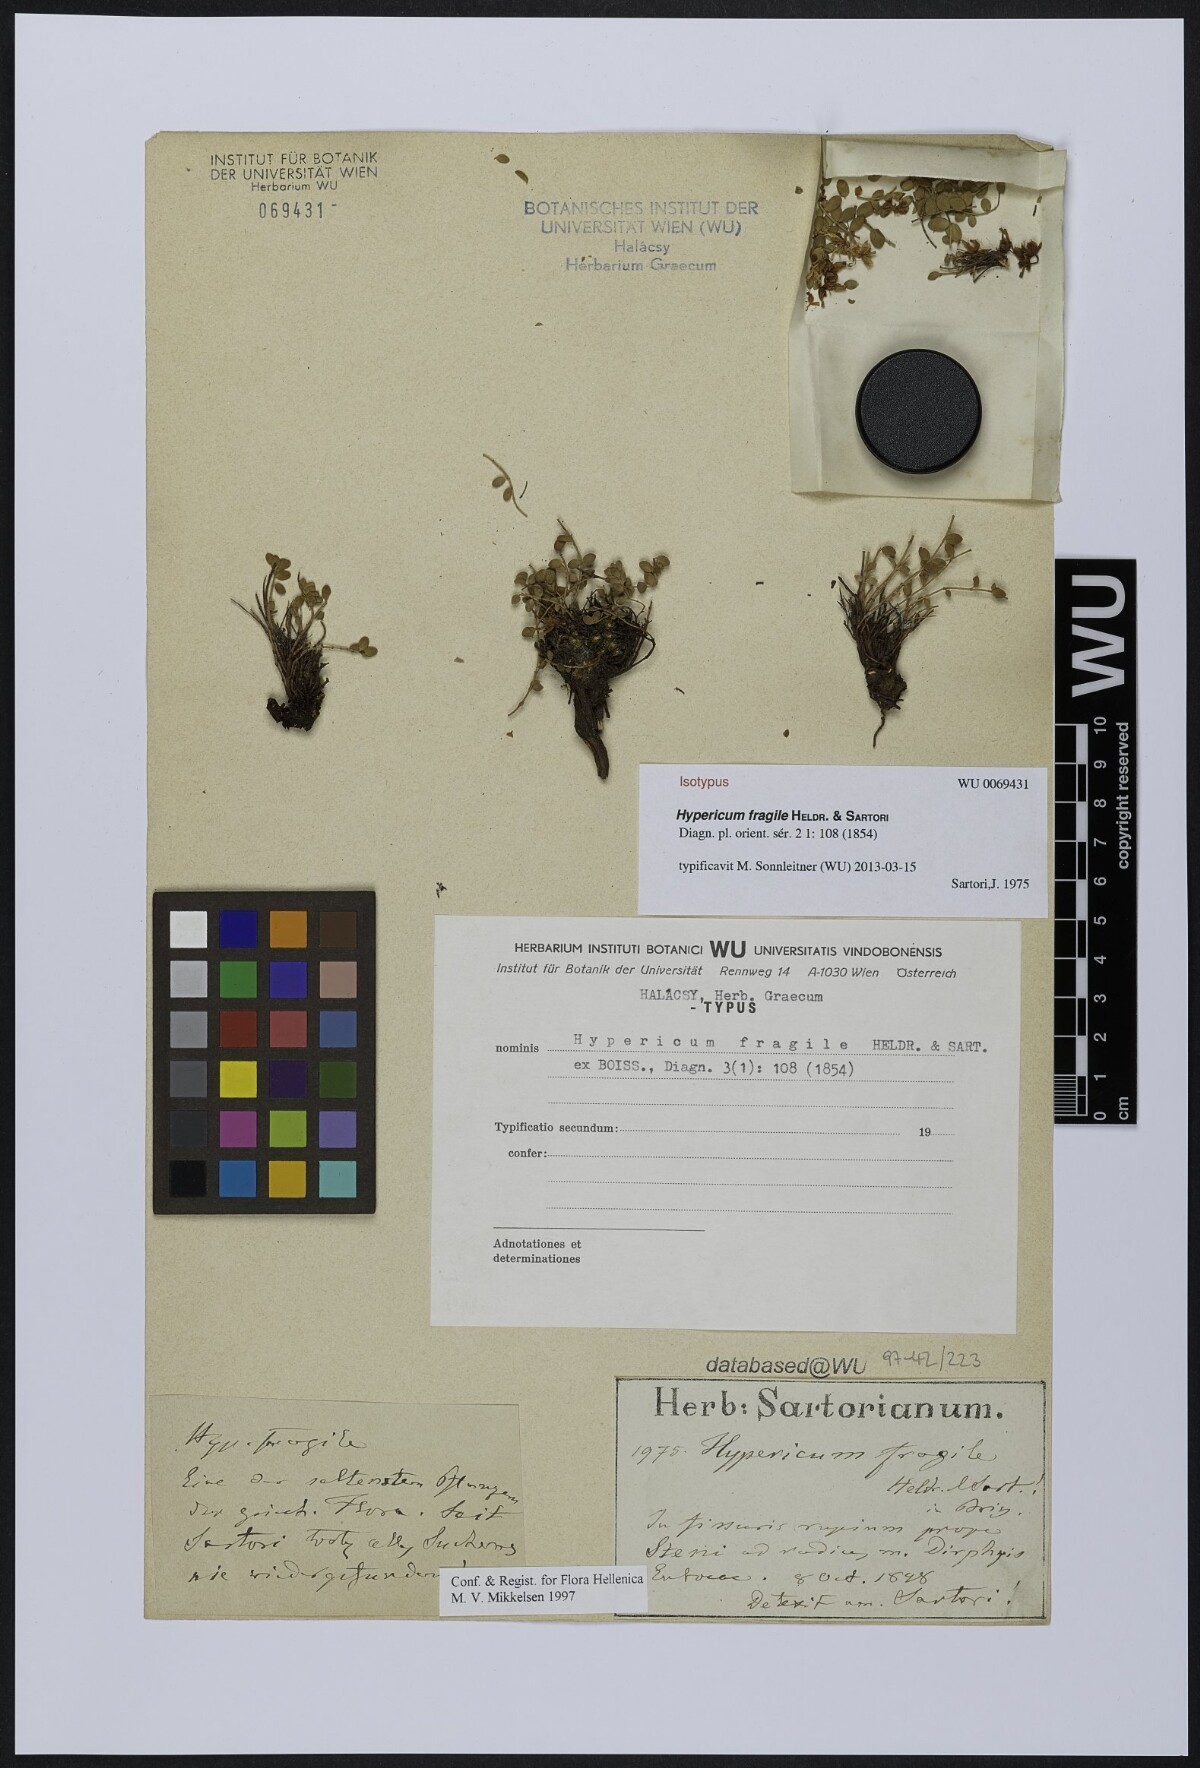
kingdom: Plantae
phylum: Tracheophyta
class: Magnoliopsida
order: Malpighiales
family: Hypericaceae
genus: Hypericum
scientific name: Hypericum fragile
